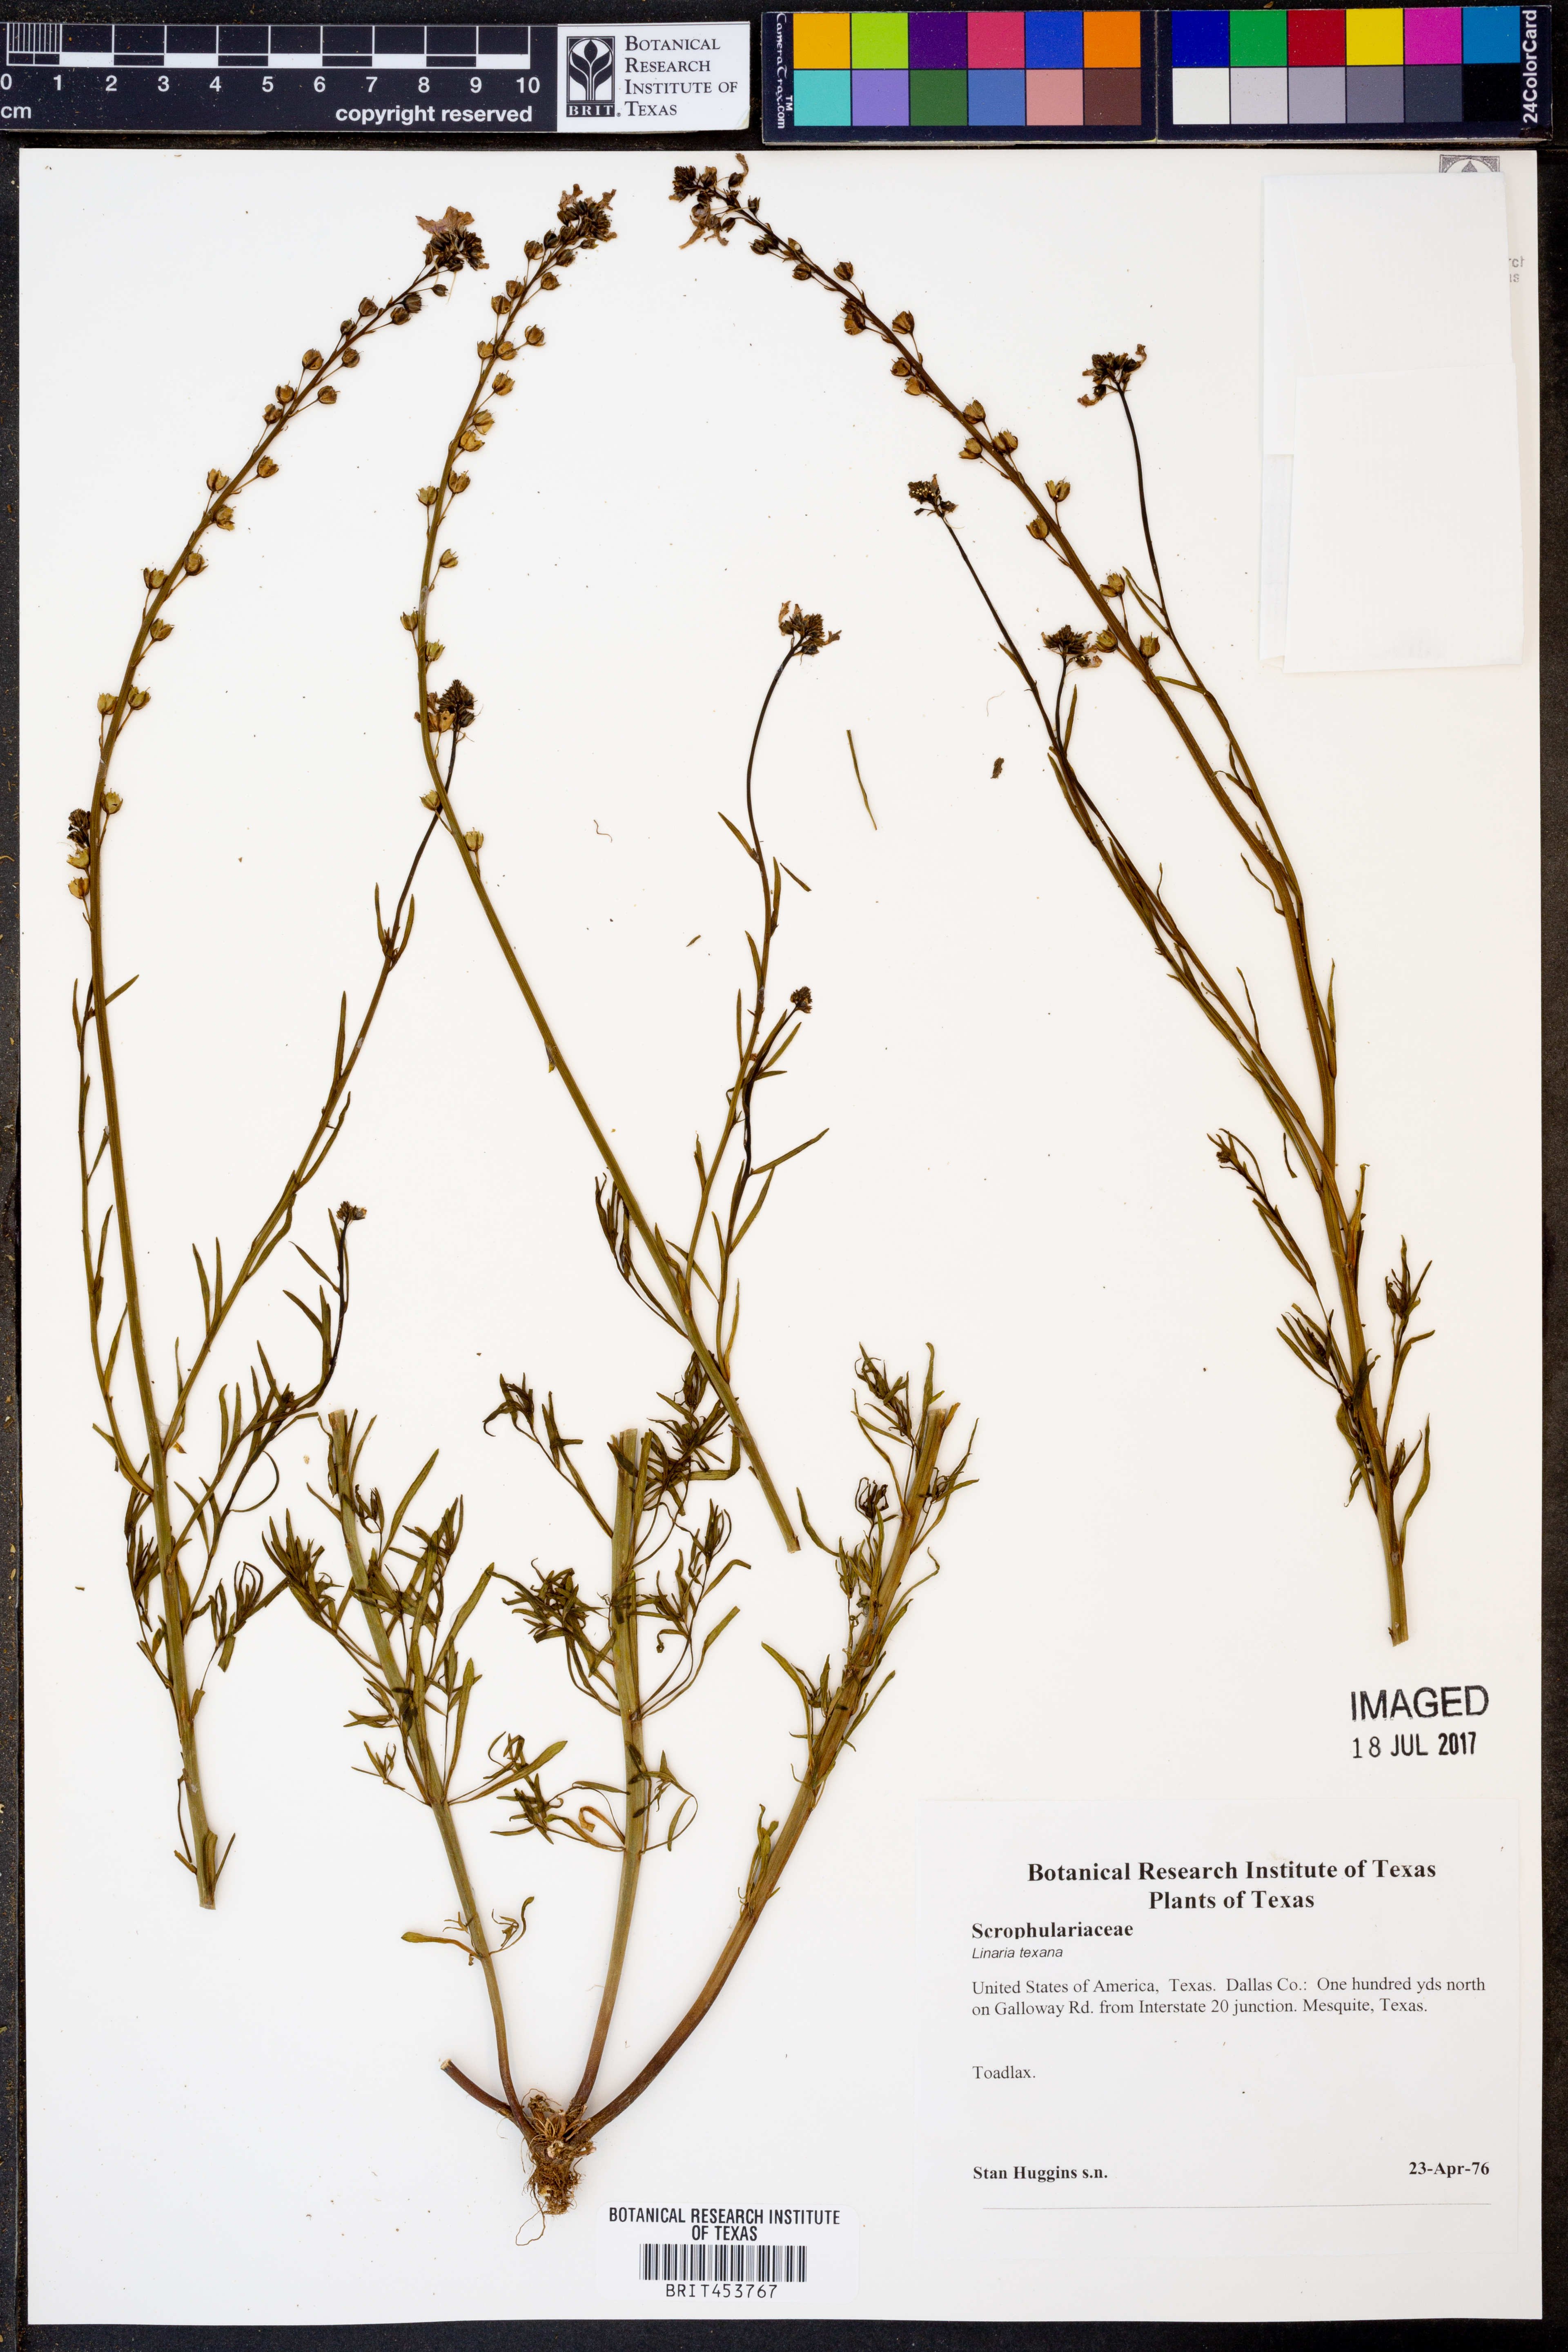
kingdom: Plantae
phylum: Tracheophyta
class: Magnoliopsida
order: Lamiales
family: Plantaginaceae
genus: Nuttallanthus
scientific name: Nuttallanthus texanus
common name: Texas toadflax
